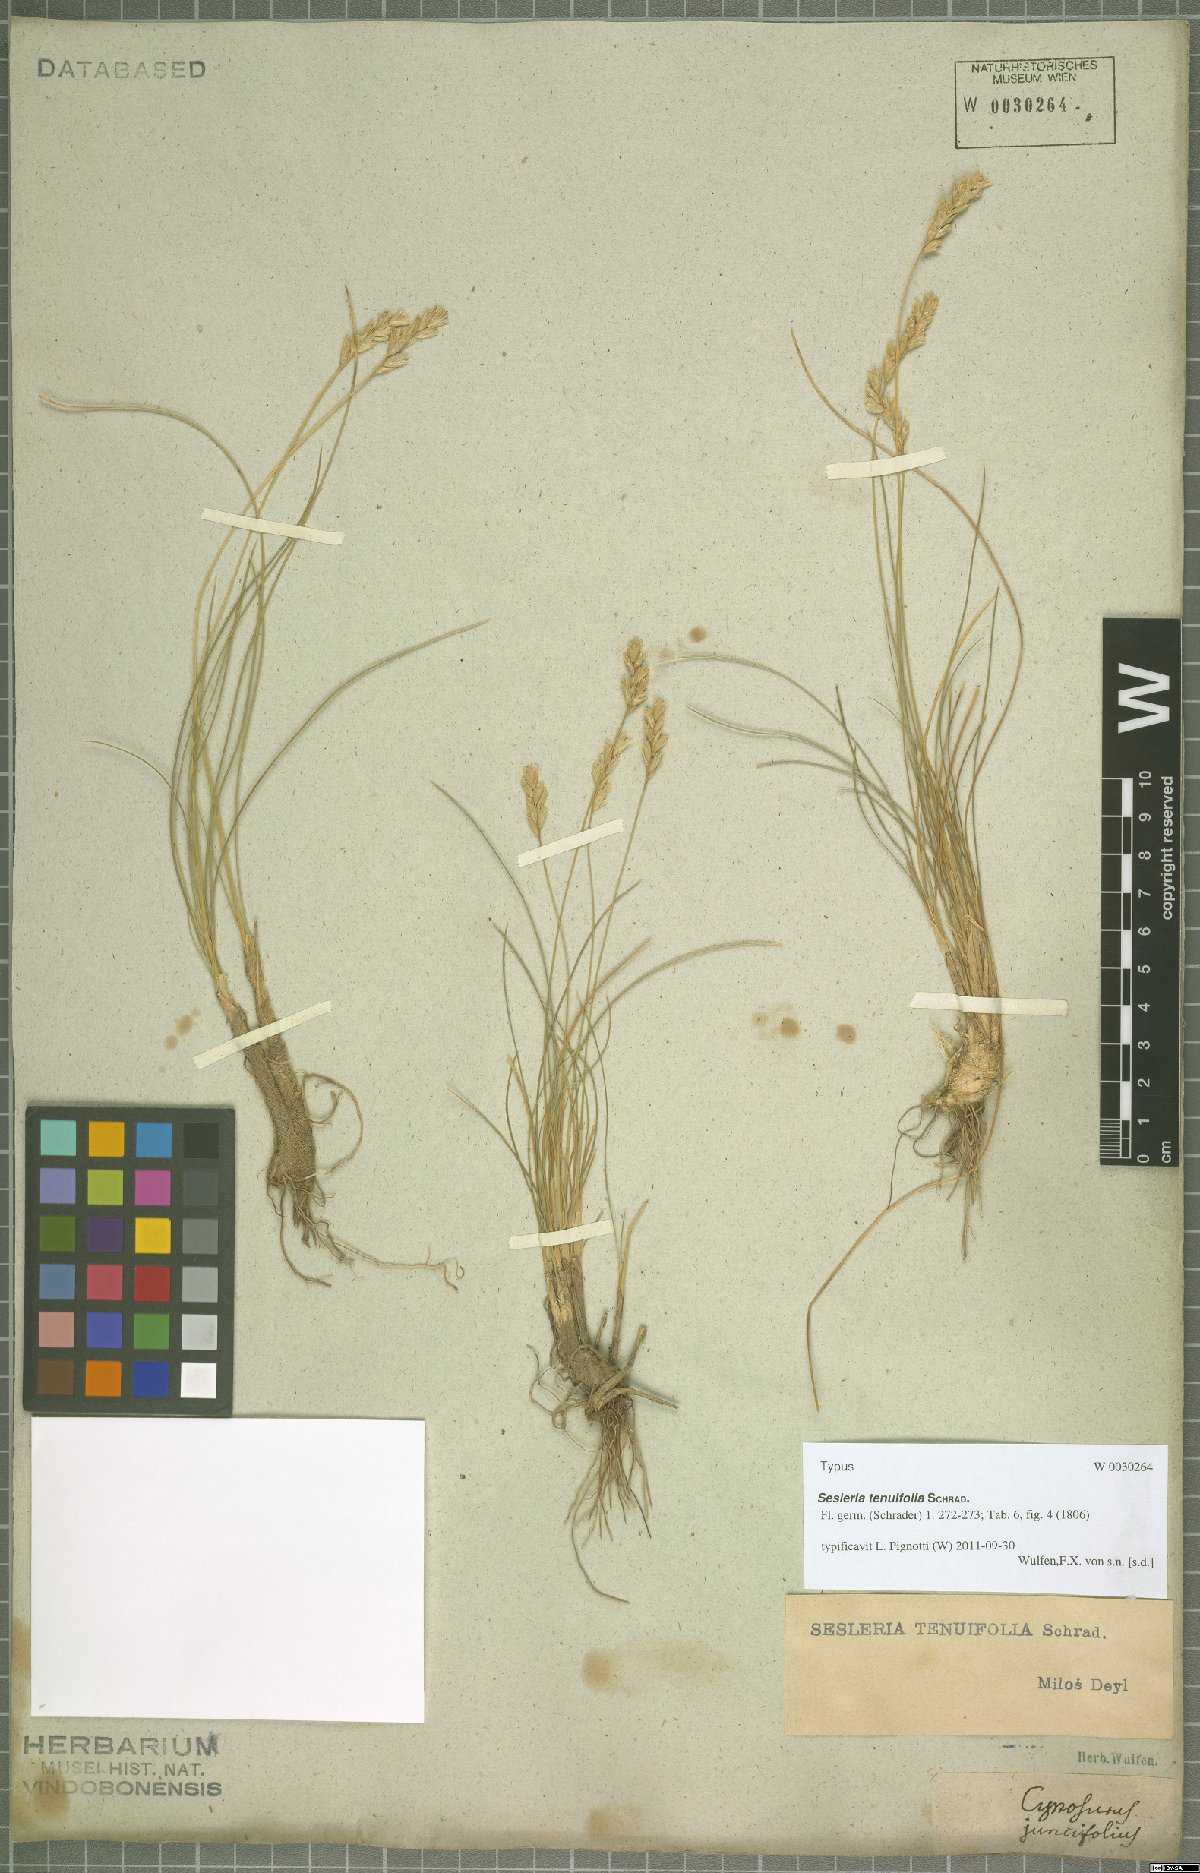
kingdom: Plantae
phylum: Tracheophyta
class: Liliopsida
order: Poales
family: Poaceae
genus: Sesleria
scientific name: Sesleria juncifolia
